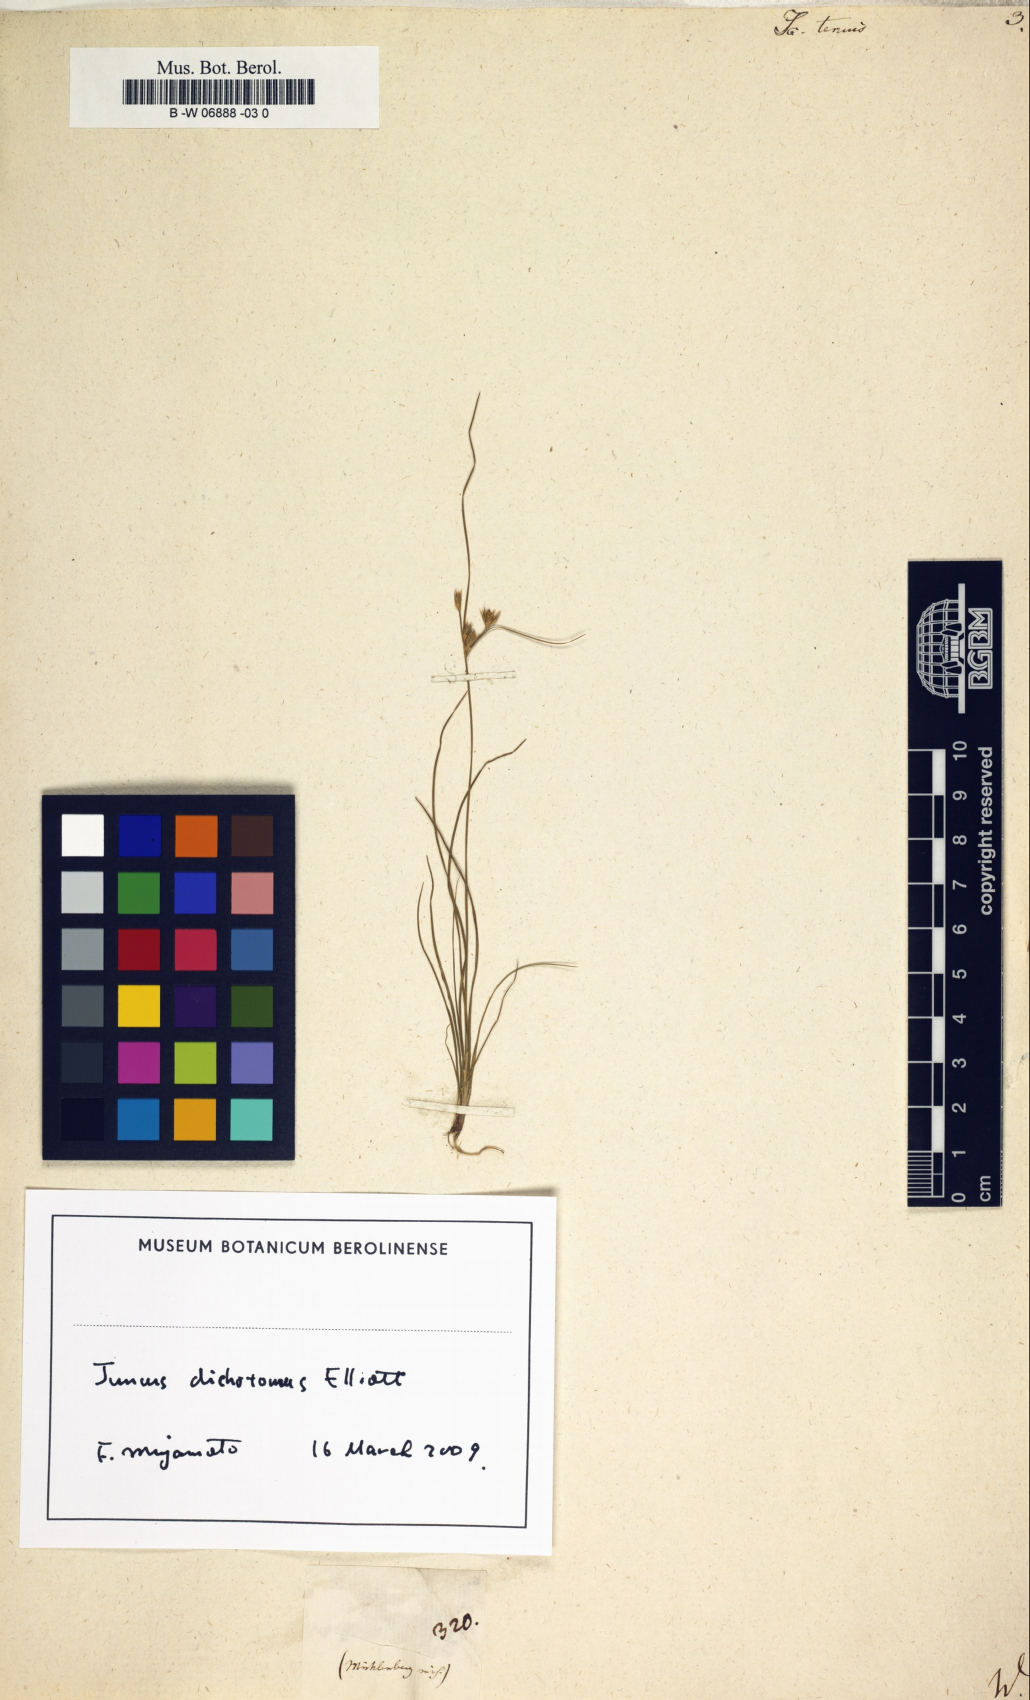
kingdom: Plantae
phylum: Tracheophyta
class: Liliopsida
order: Poales
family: Juncaceae
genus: Juncus
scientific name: Juncus tenuis
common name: Slender rush
